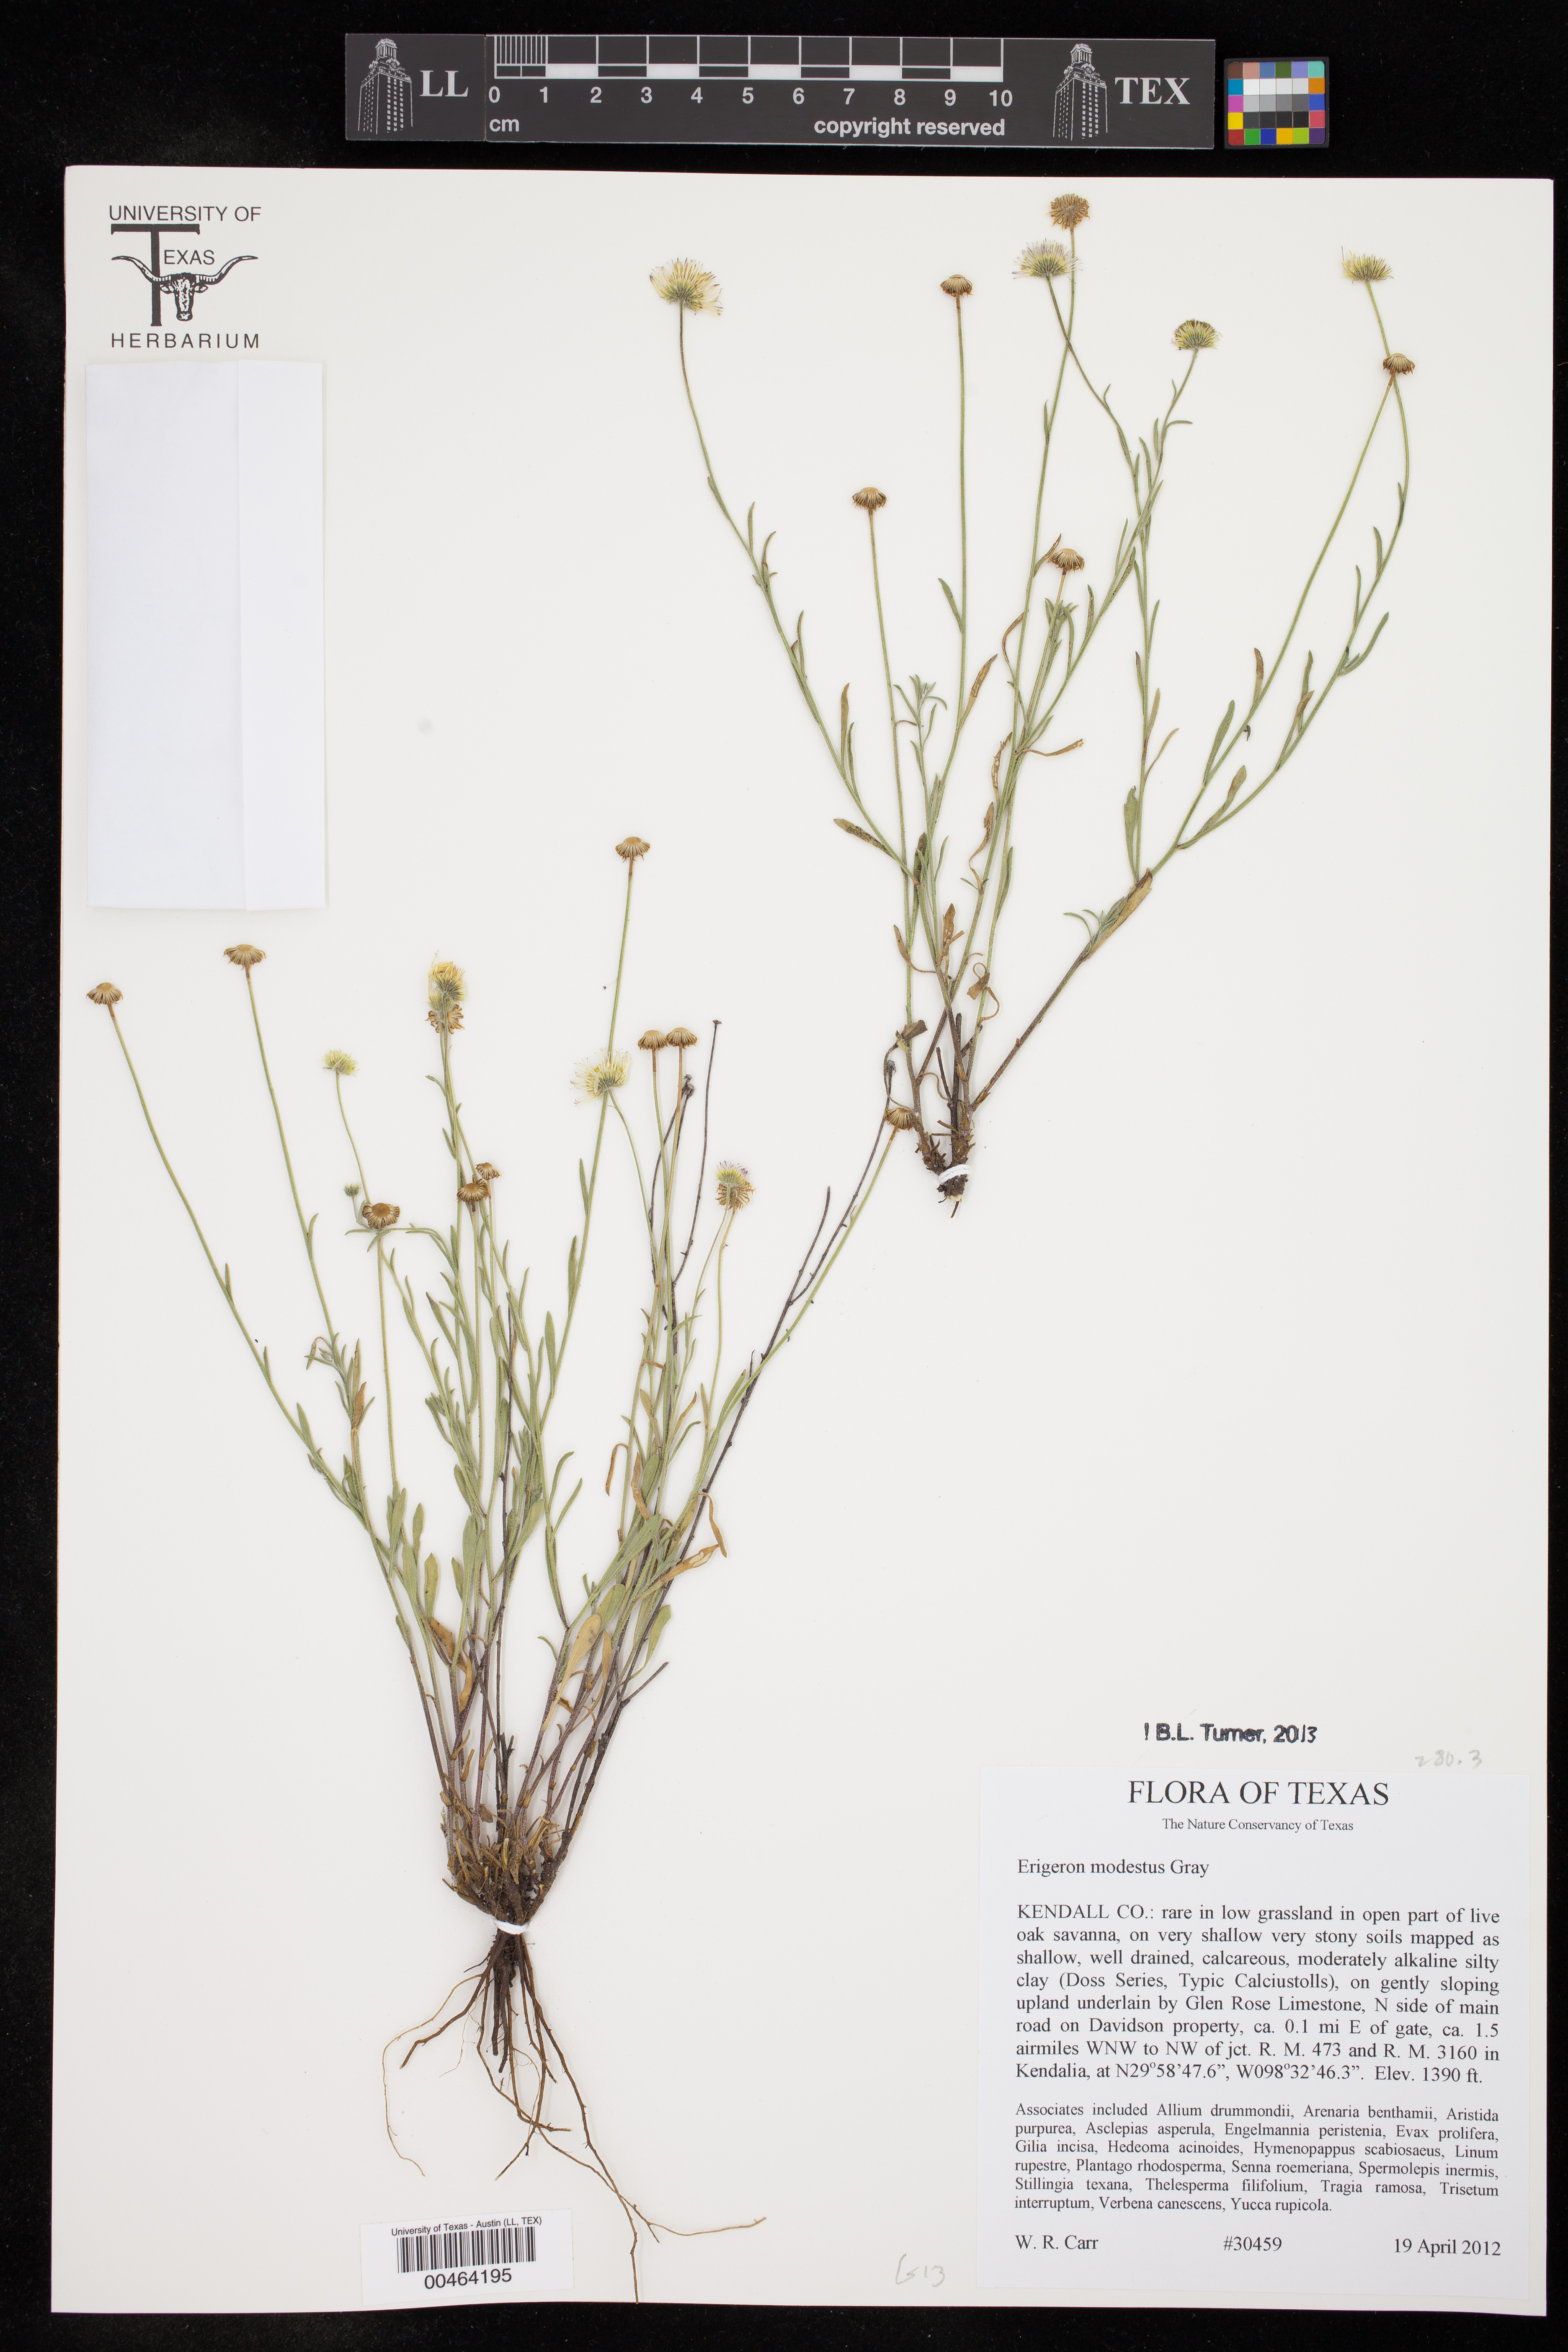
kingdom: Plantae
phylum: Tracheophyta
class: Magnoliopsida
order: Asterales
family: Asteraceae
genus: Erigeron
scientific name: Erigeron modestus
